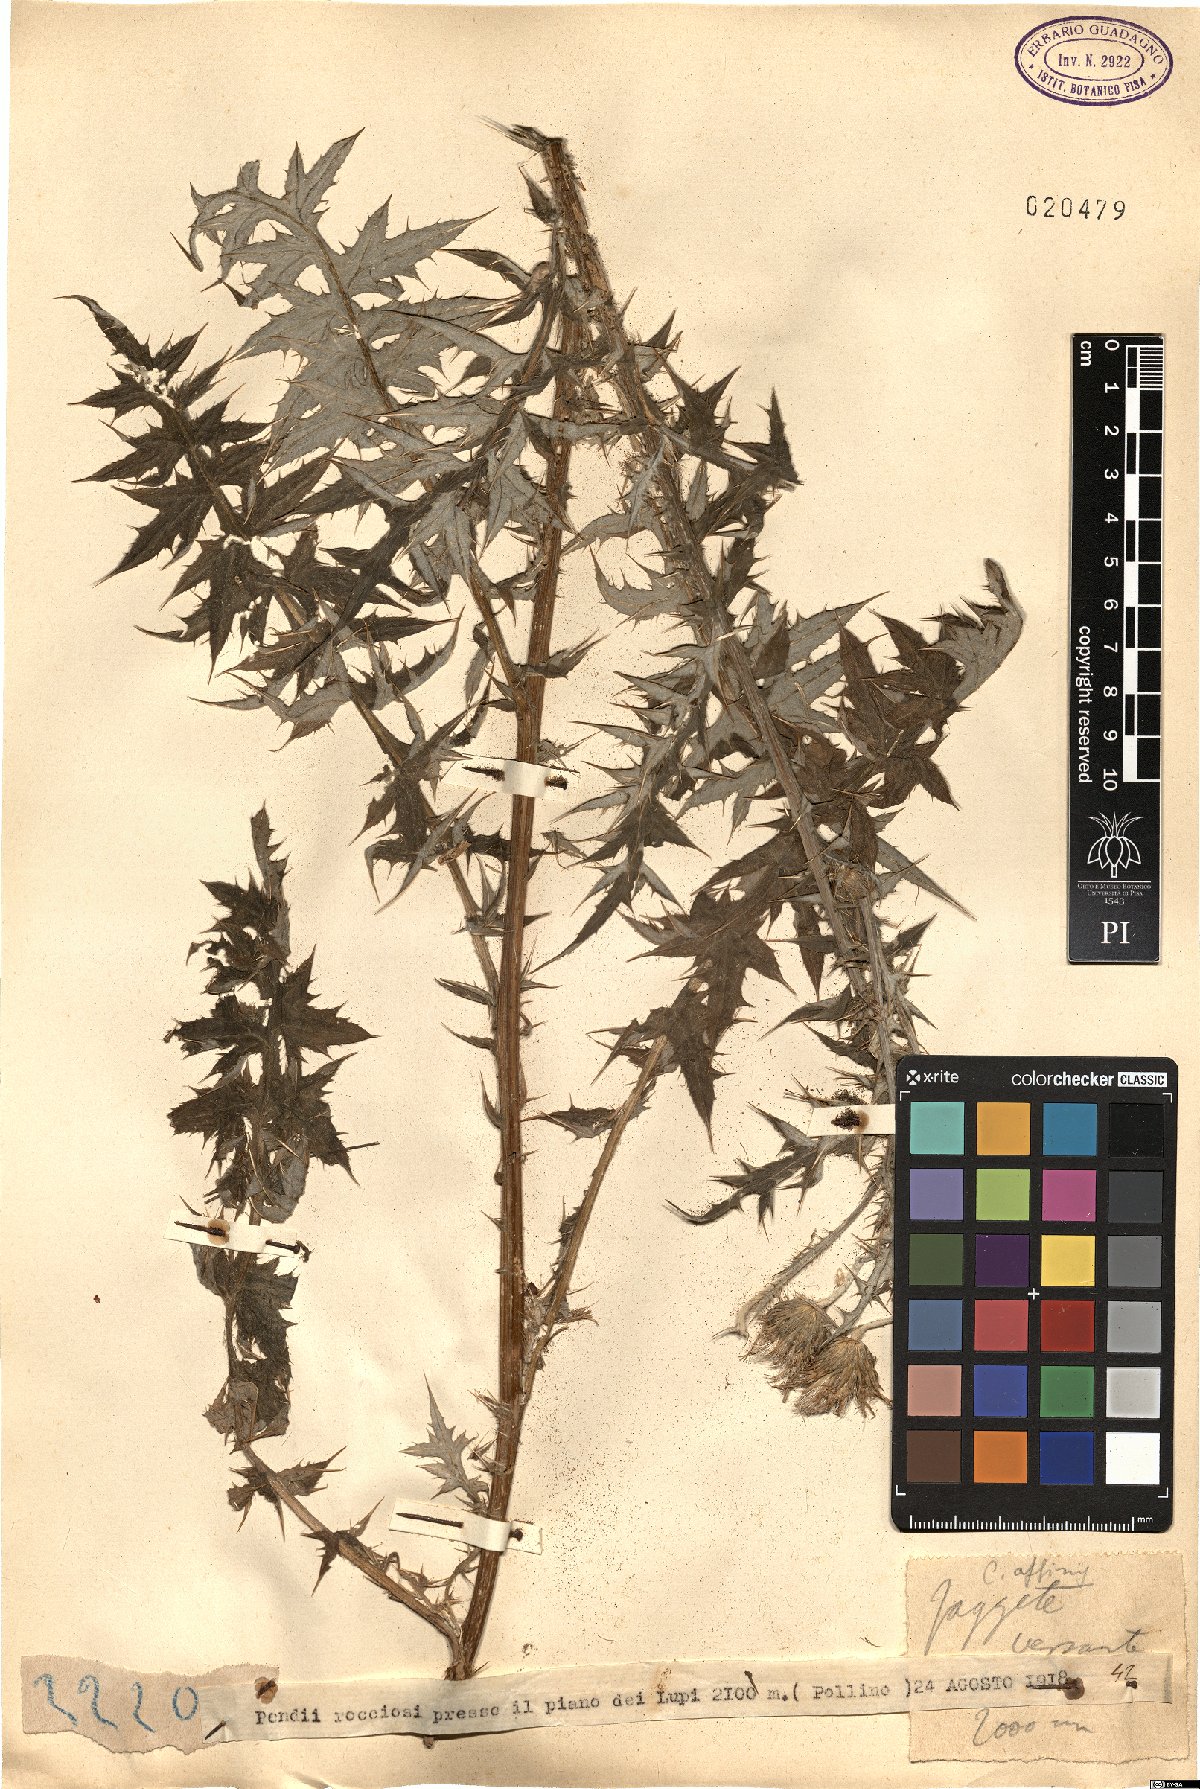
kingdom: Plantae
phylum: Tracheophyta
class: Magnoliopsida
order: Asterales
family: Asteraceae
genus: Carduus
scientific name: Carduus
